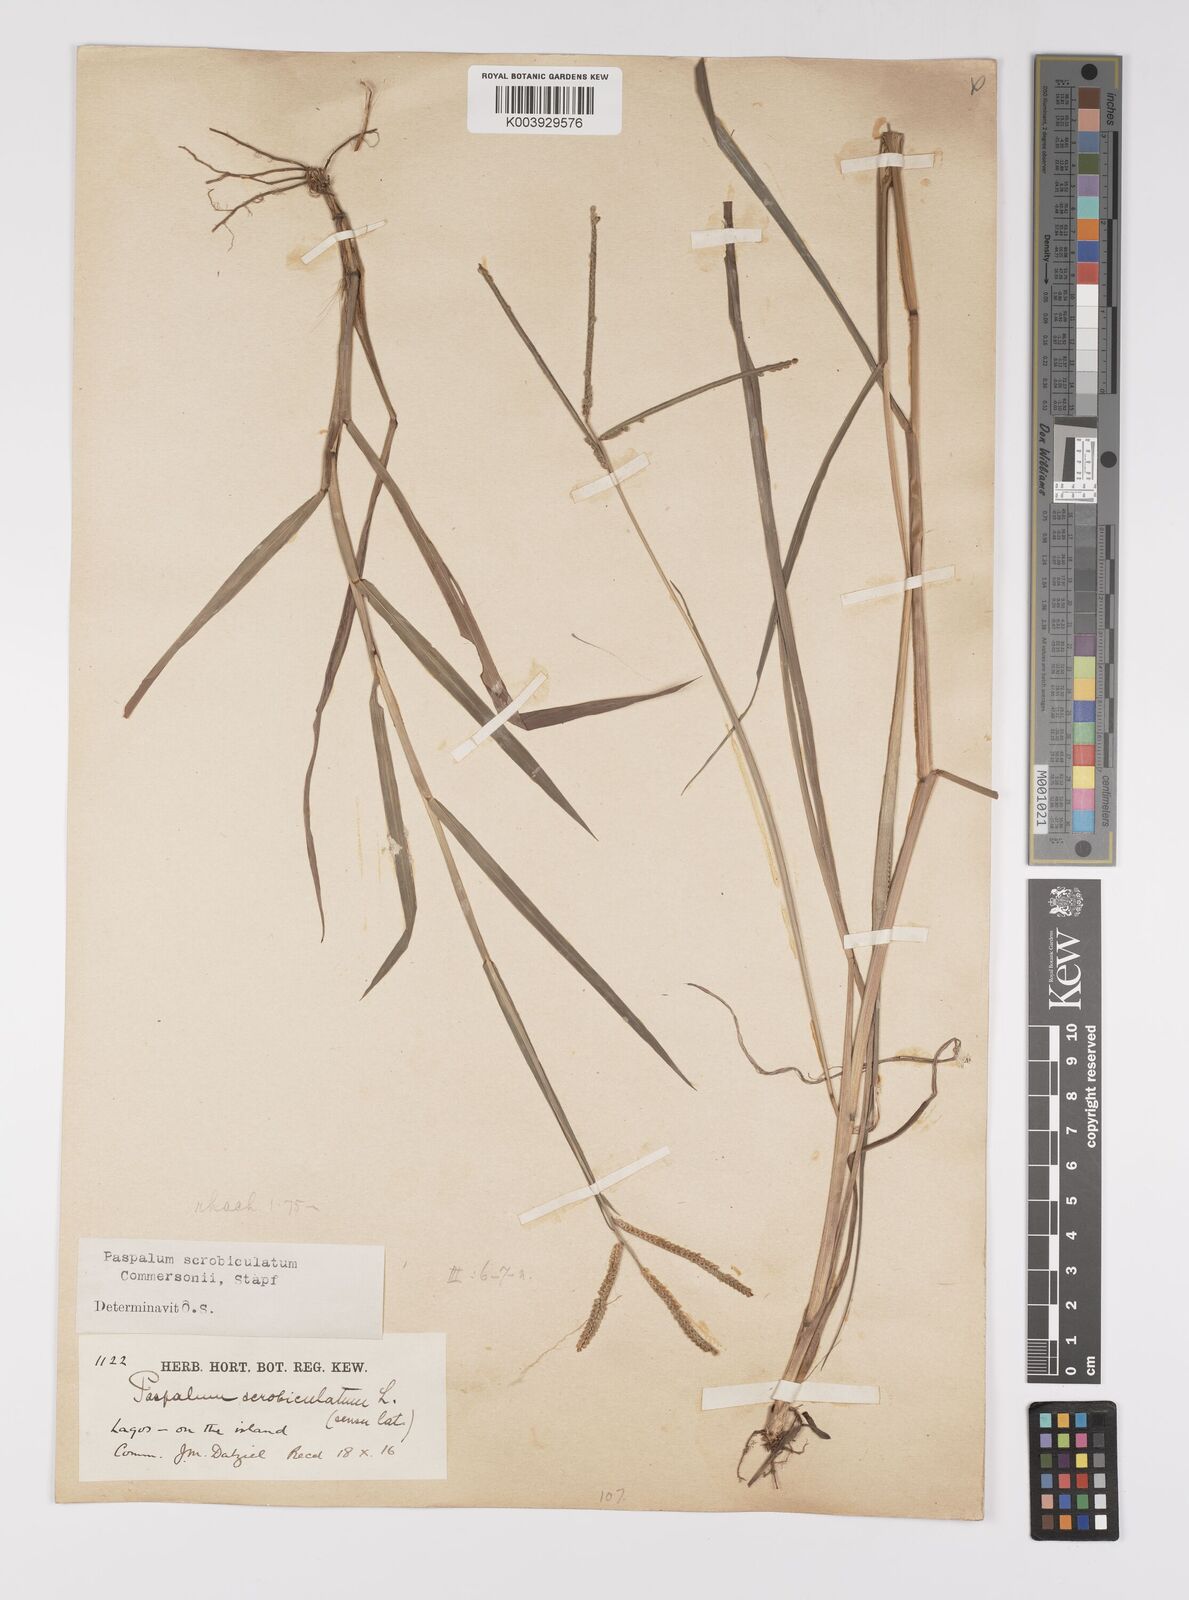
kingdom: Plantae
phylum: Tracheophyta
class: Liliopsida
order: Poales
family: Poaceae
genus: Paspalum
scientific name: Paspalum scrobiculatum
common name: Kodo millet
